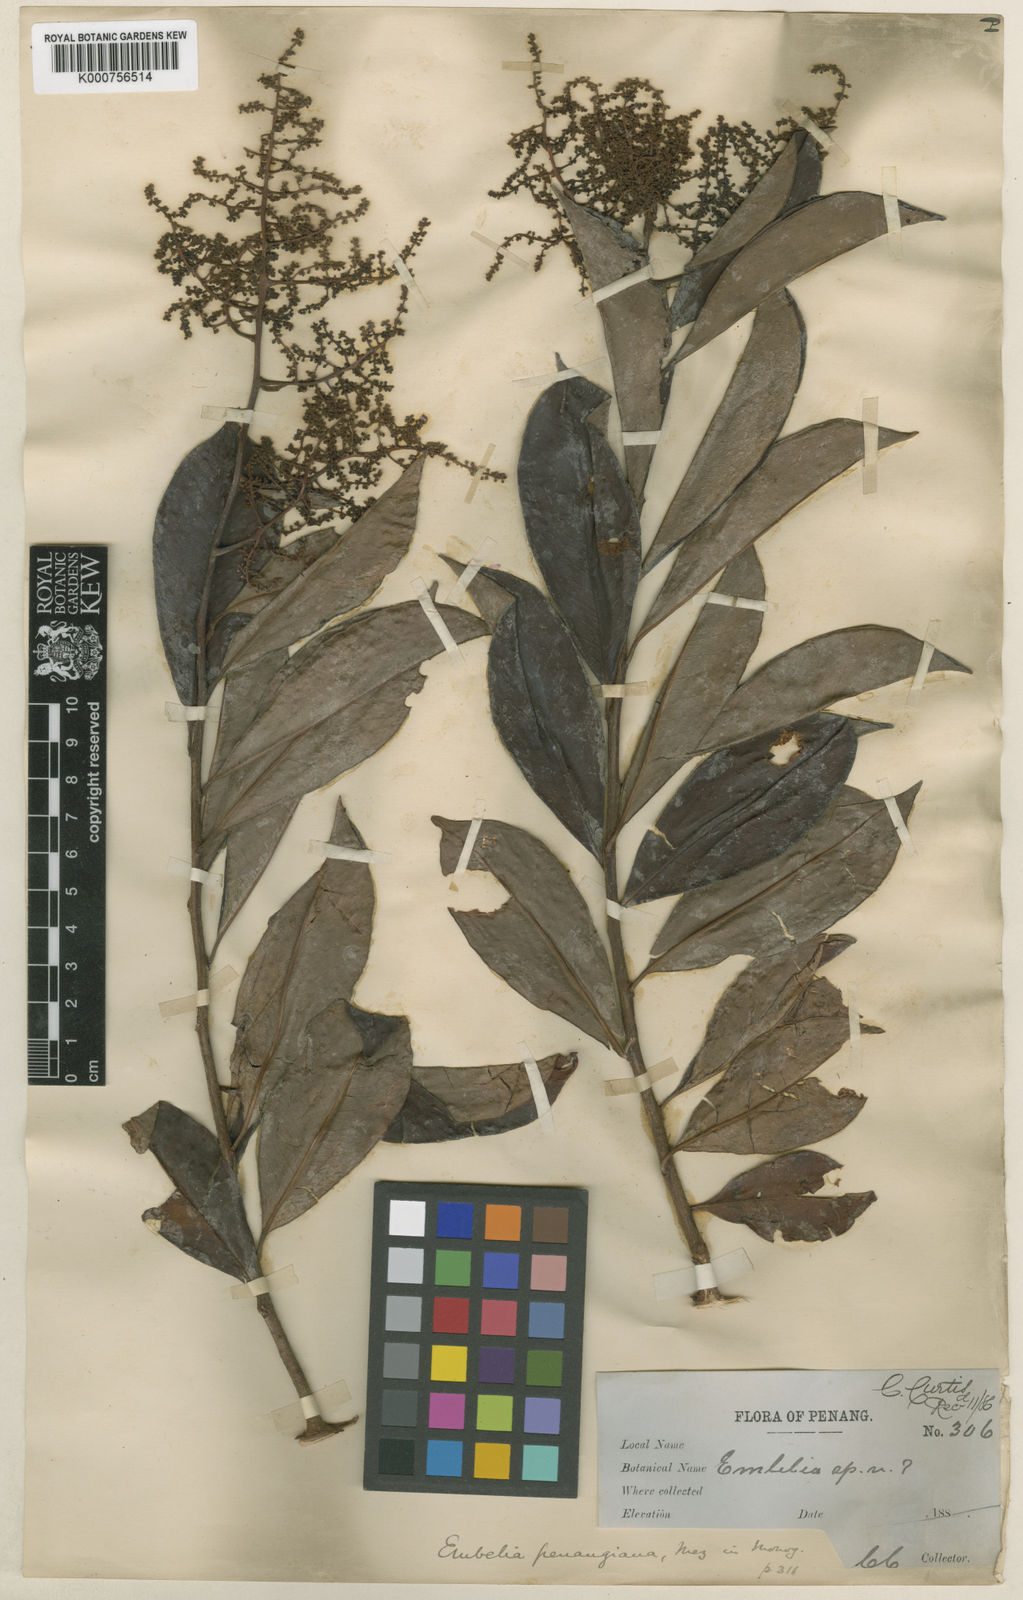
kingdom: Plantae
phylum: Tracheophyta
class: Magnoliopsida
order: Ericales
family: Primulaceae
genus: Embelia
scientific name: Embelia penangiana
